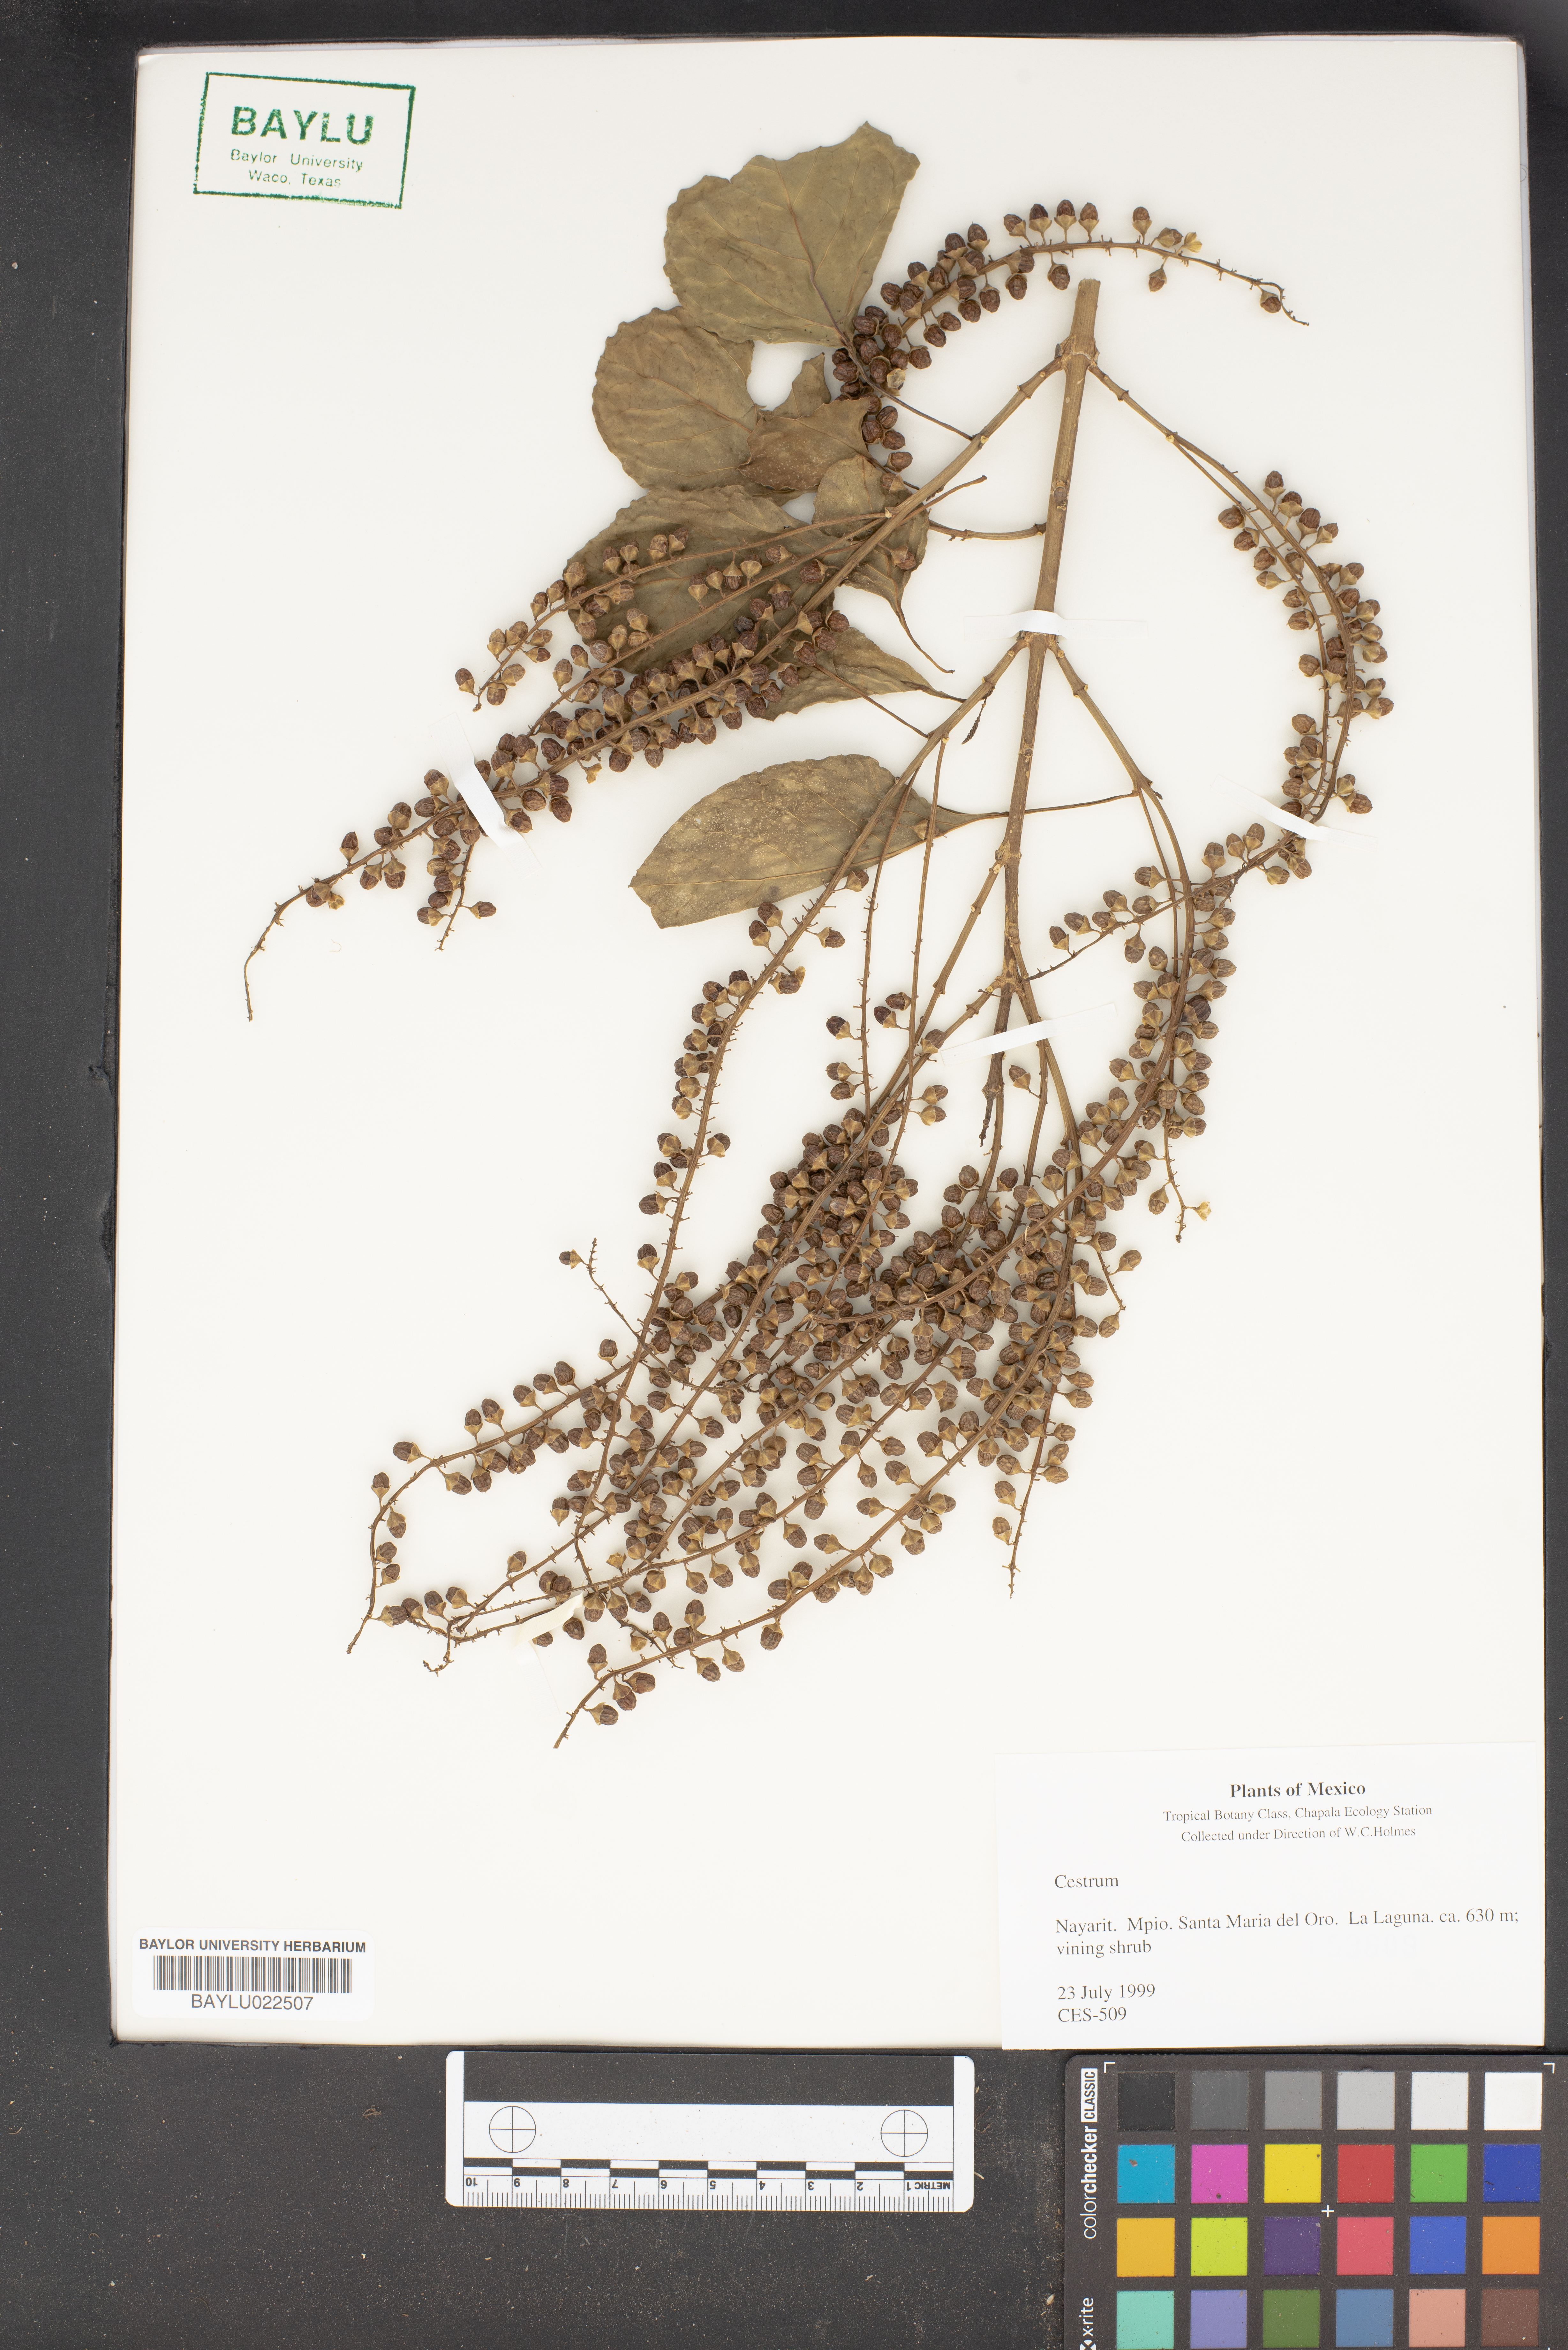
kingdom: Plantae
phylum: Tracheophyta
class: Magnoliopsida
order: Solanales
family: Solanaceae
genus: Cestrum
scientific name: Cestrum
